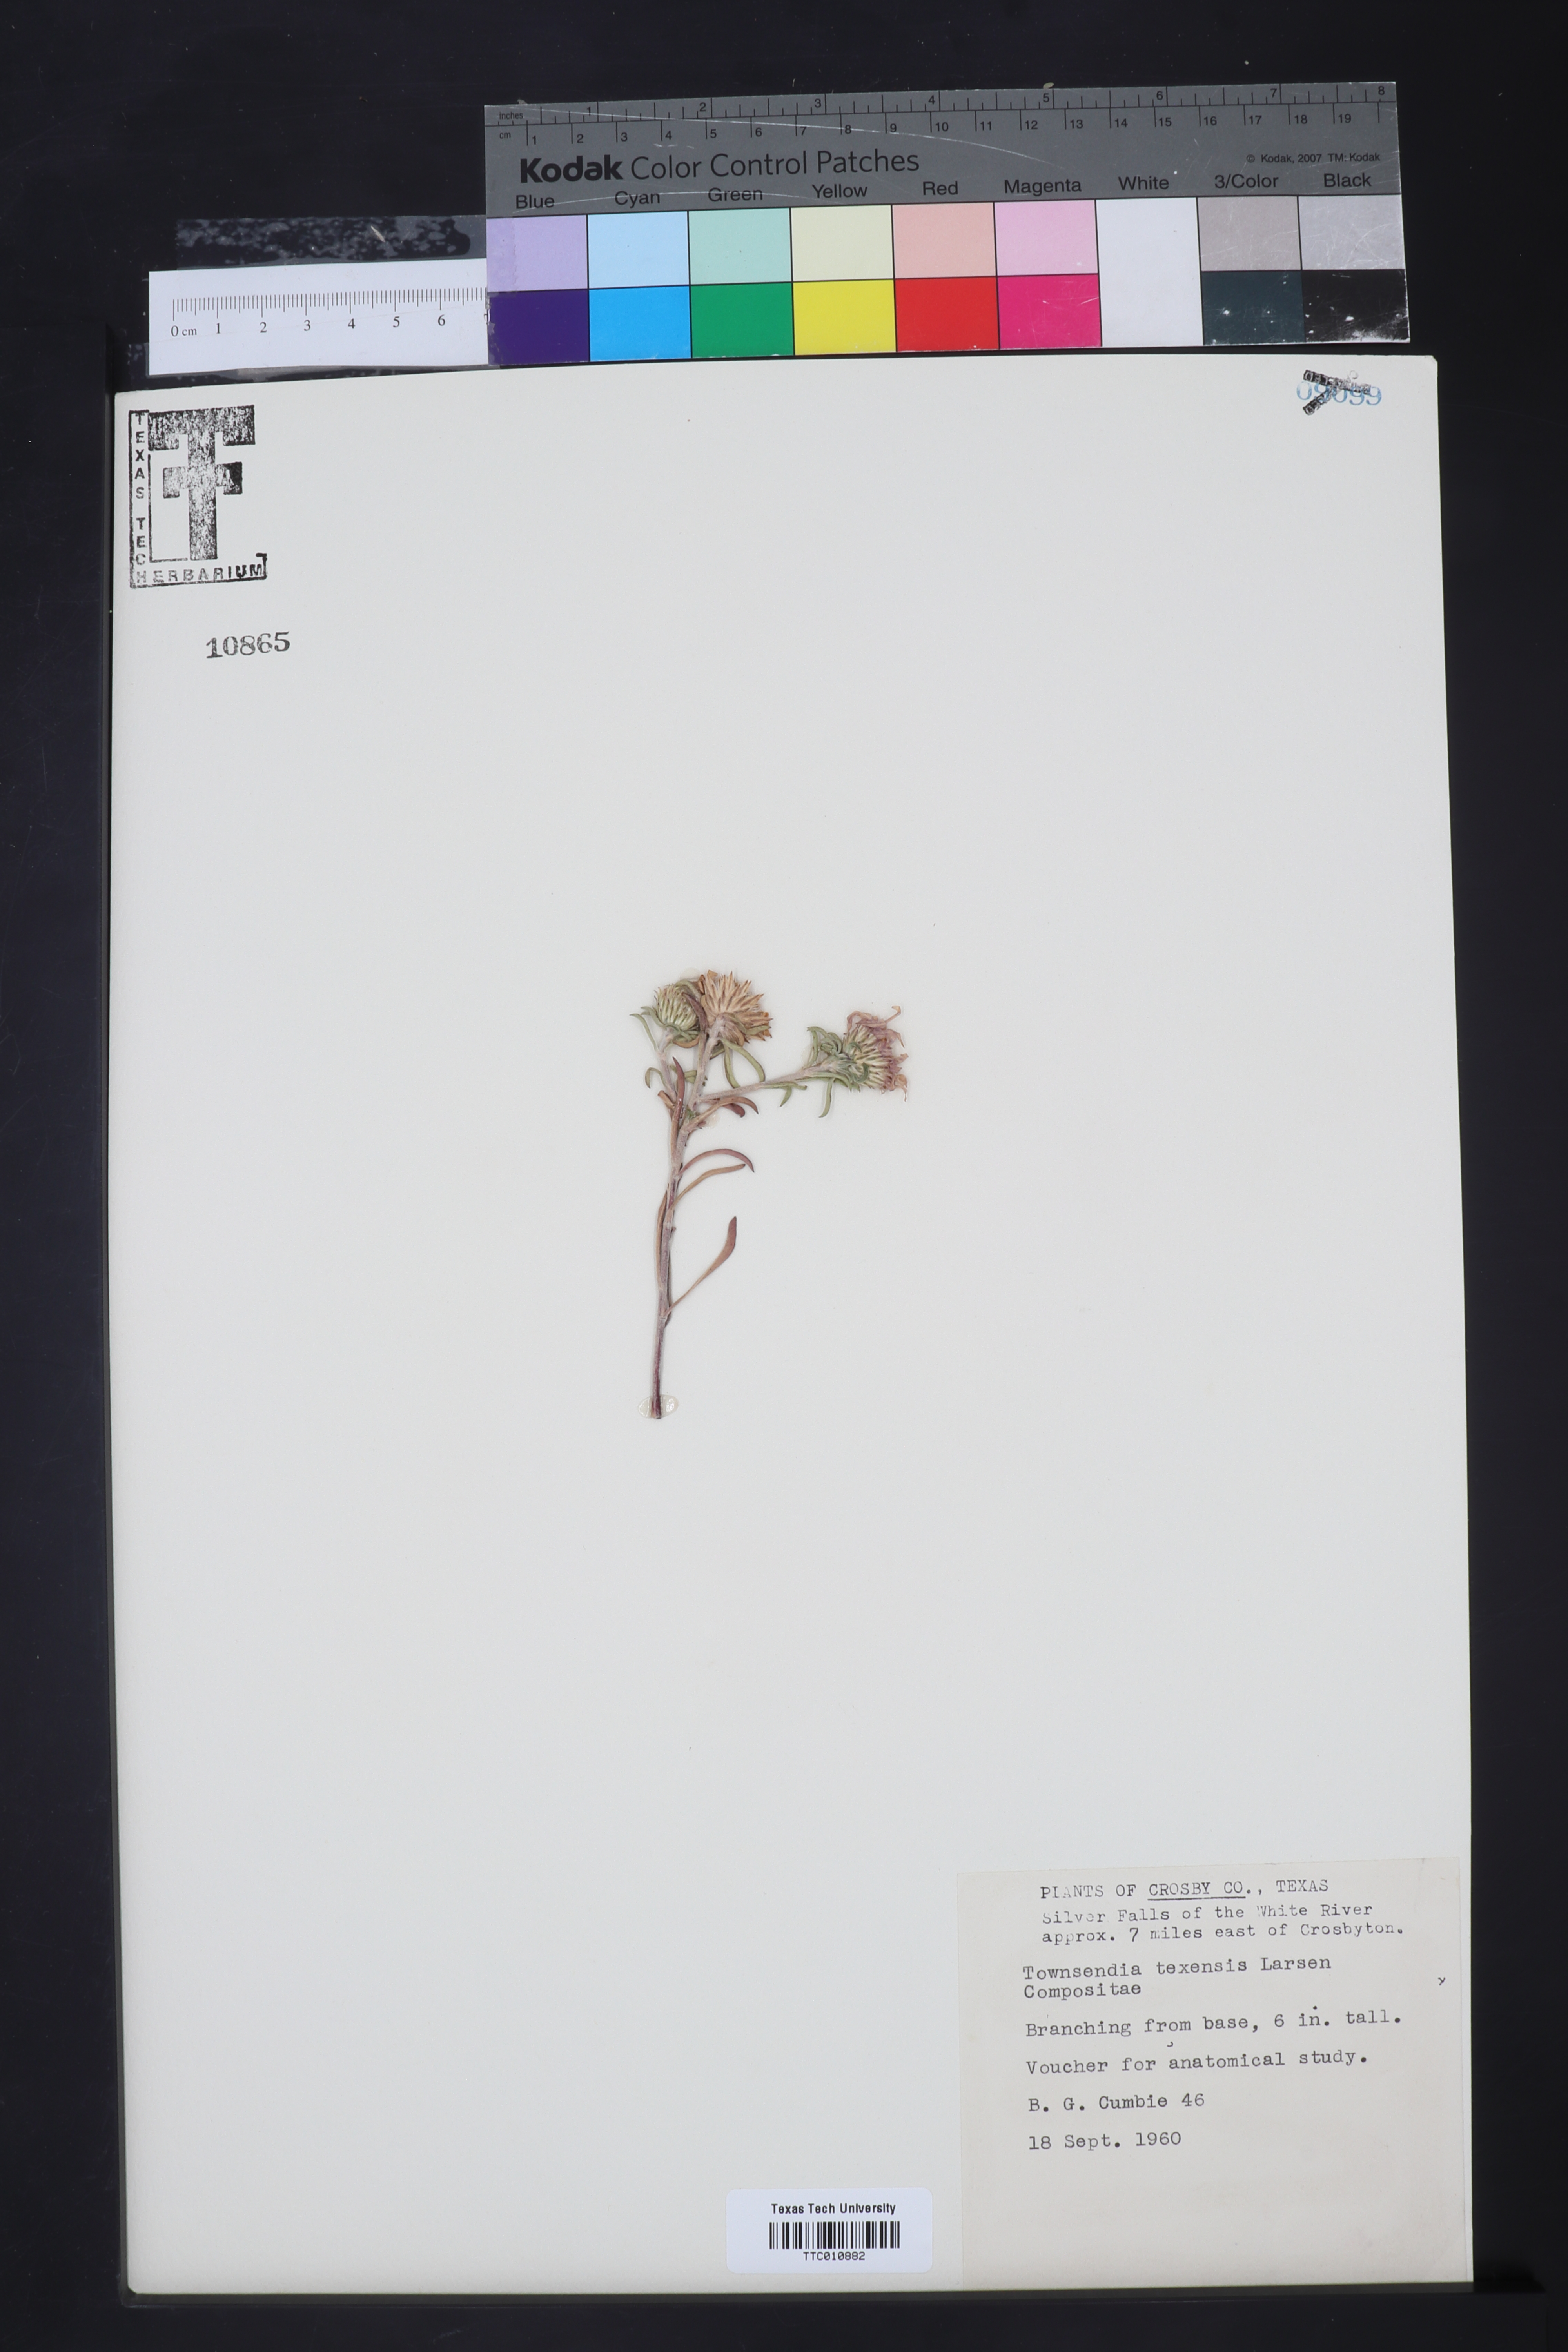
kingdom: Plantae
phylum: Tracheophyta
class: Magnoliopsida
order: Asterales
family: Asteraceae
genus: Townsendia
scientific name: Townsendia texensis
